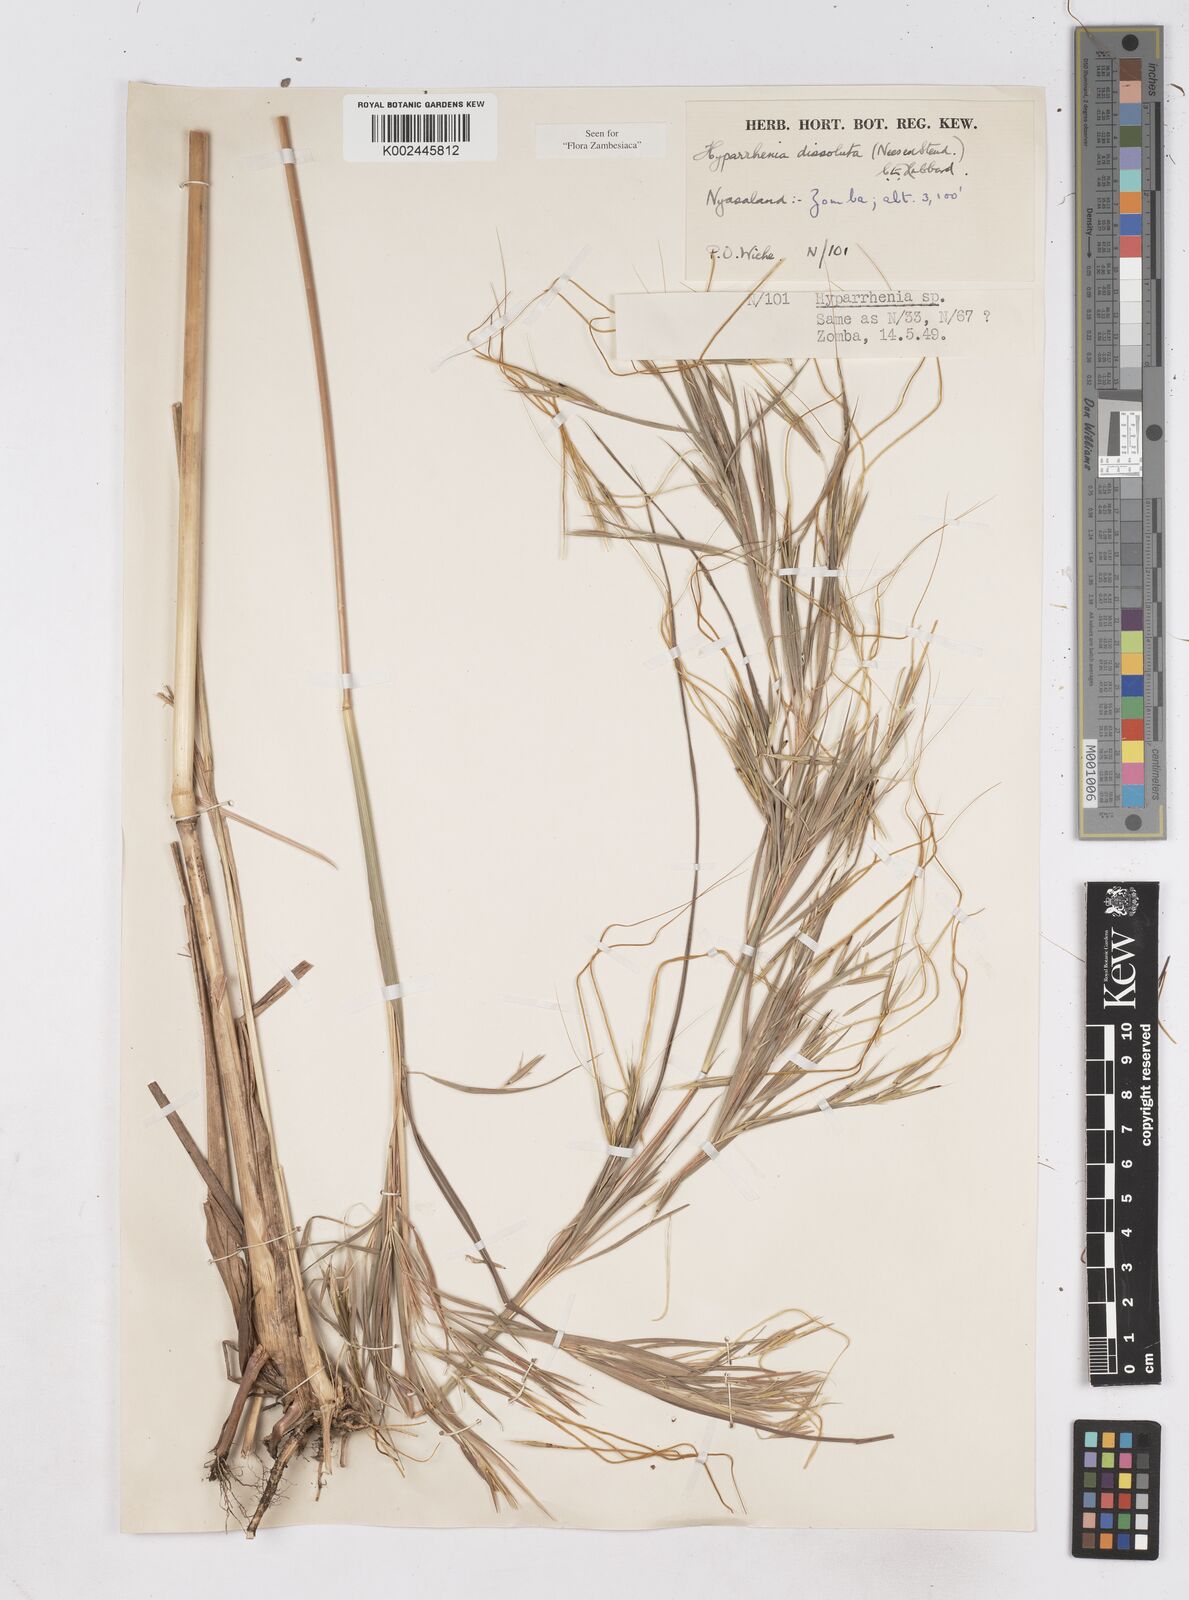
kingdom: Plantae
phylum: Tracheophyta
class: Liliopsida
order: Poales
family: Poaceae
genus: Hyperthelia
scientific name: Hyperthelia dissoluta
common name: Yellow thatching grass
